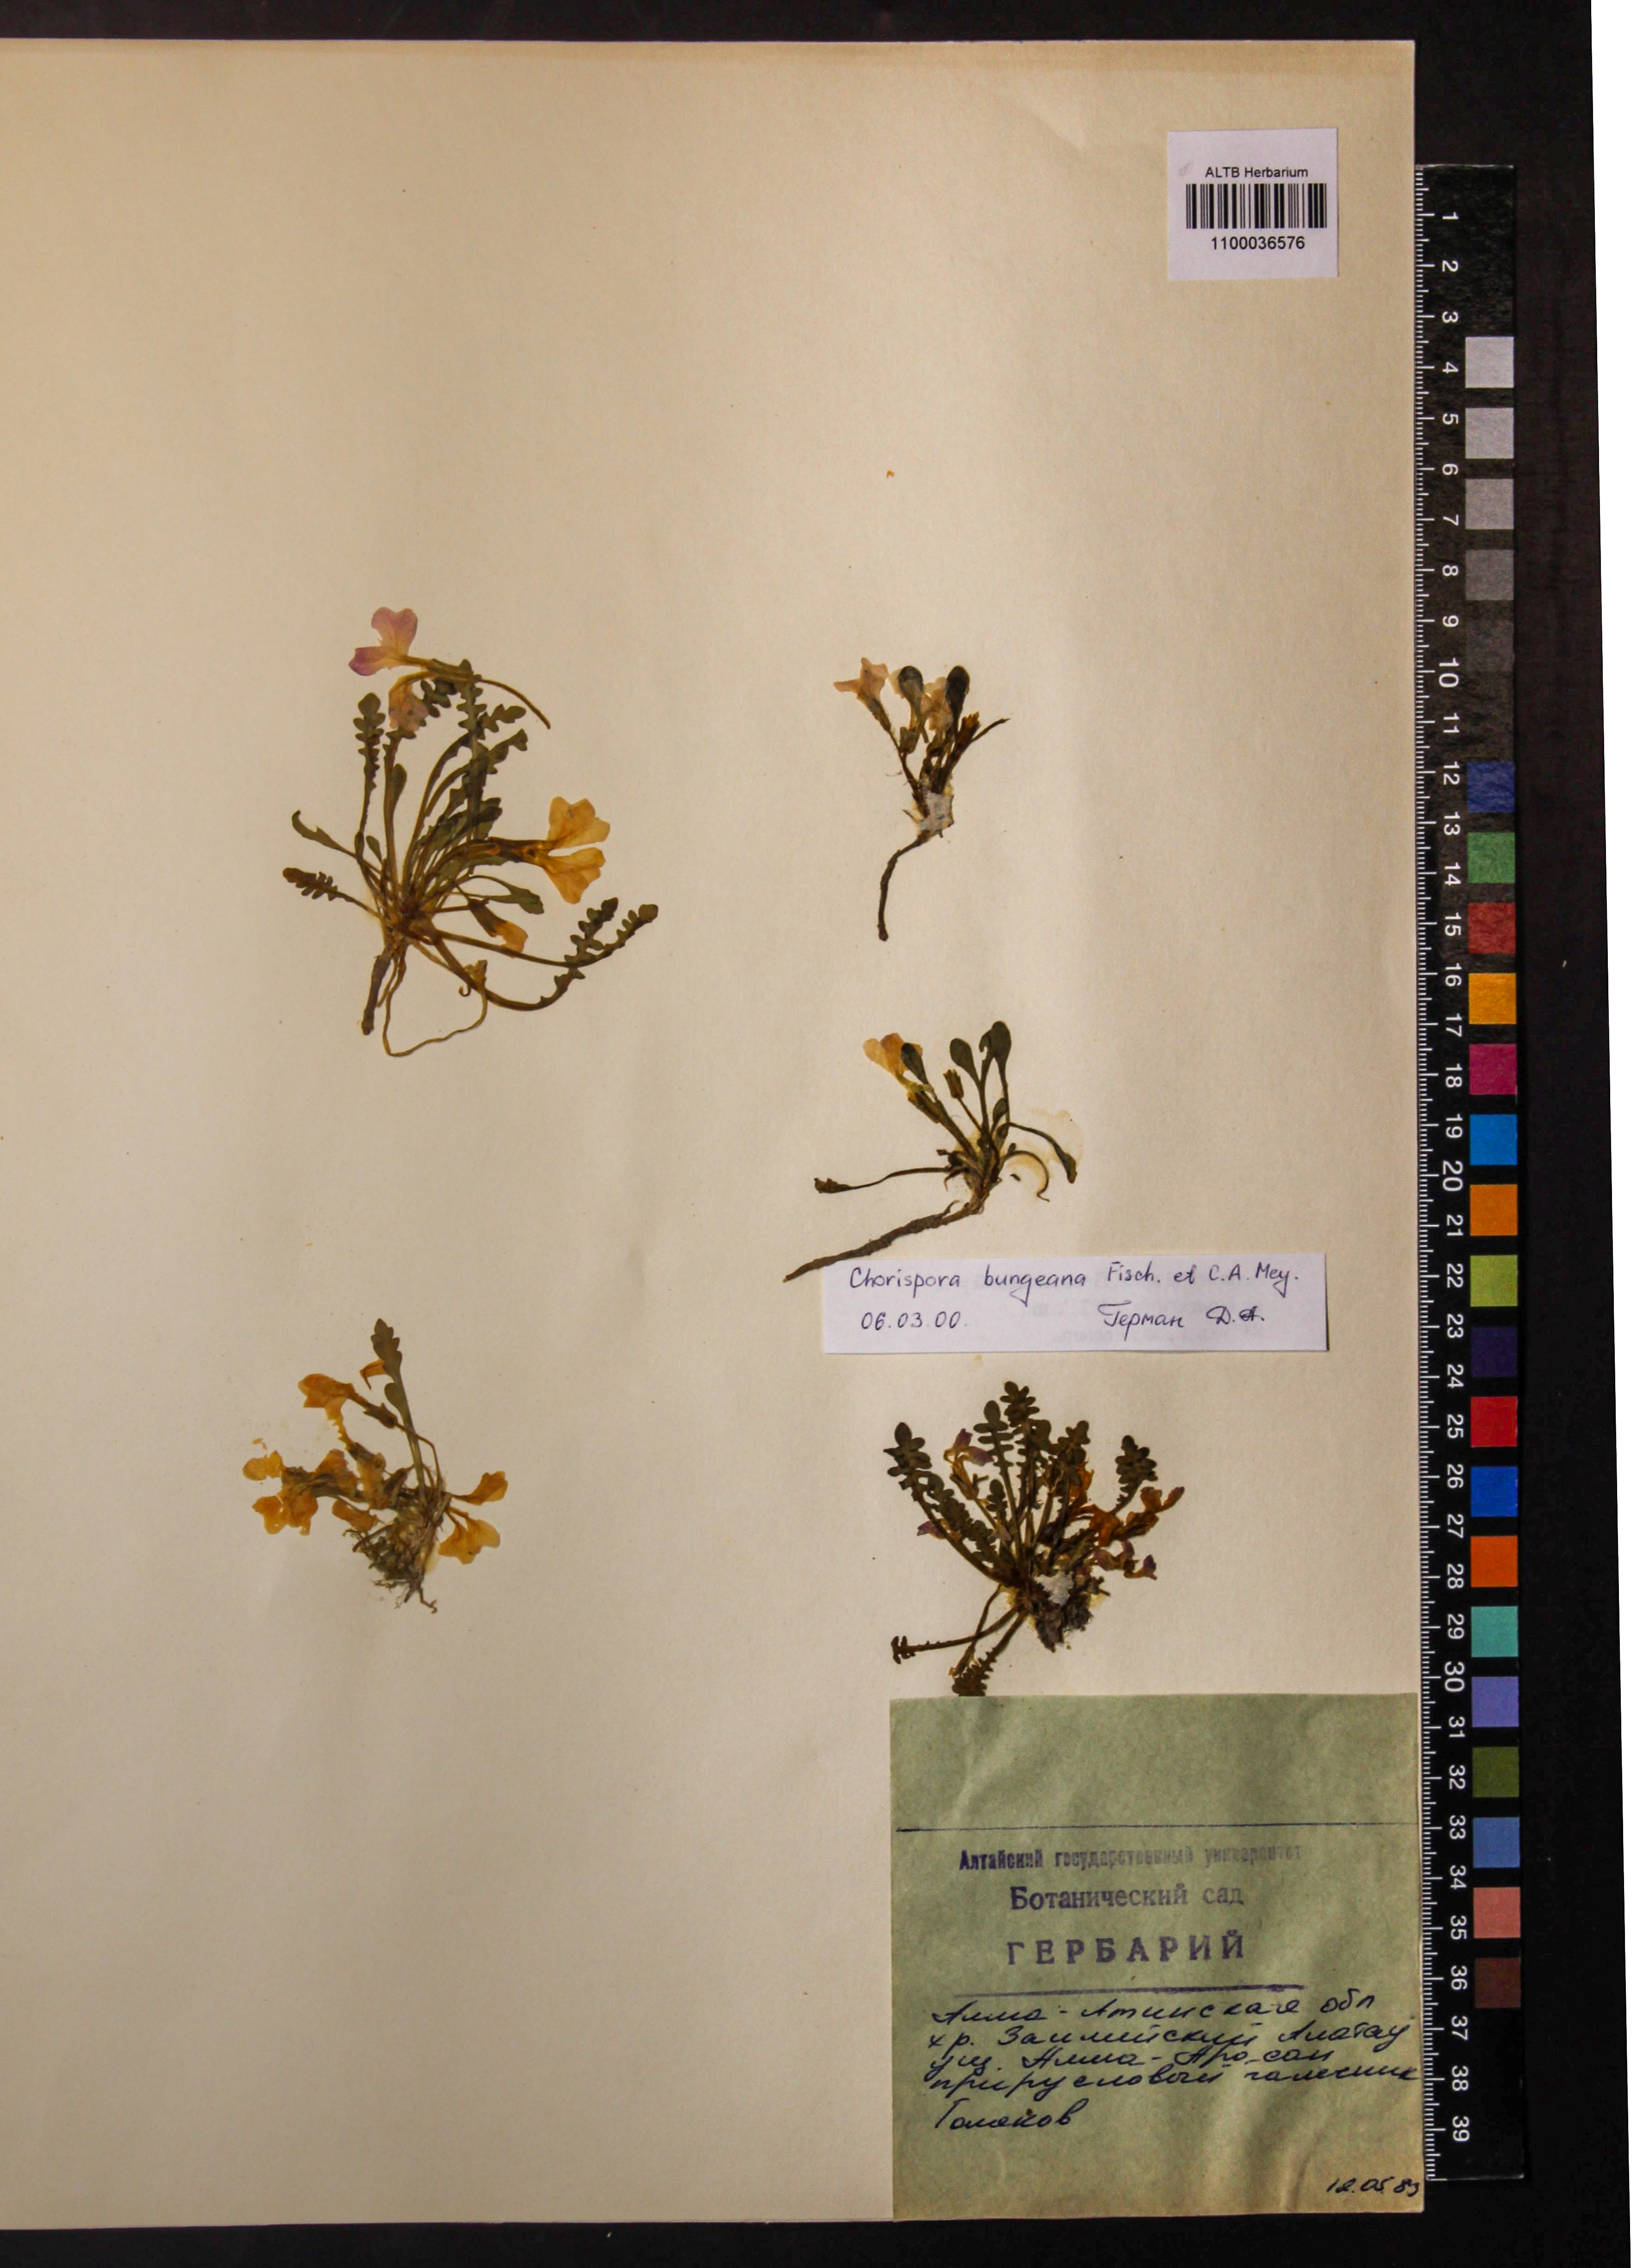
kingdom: Plantae
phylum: Tracheophyta
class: Magnoliopsida
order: Brassicales
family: Brassicaceae
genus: Chorispora
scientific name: Chorispora bungeana
